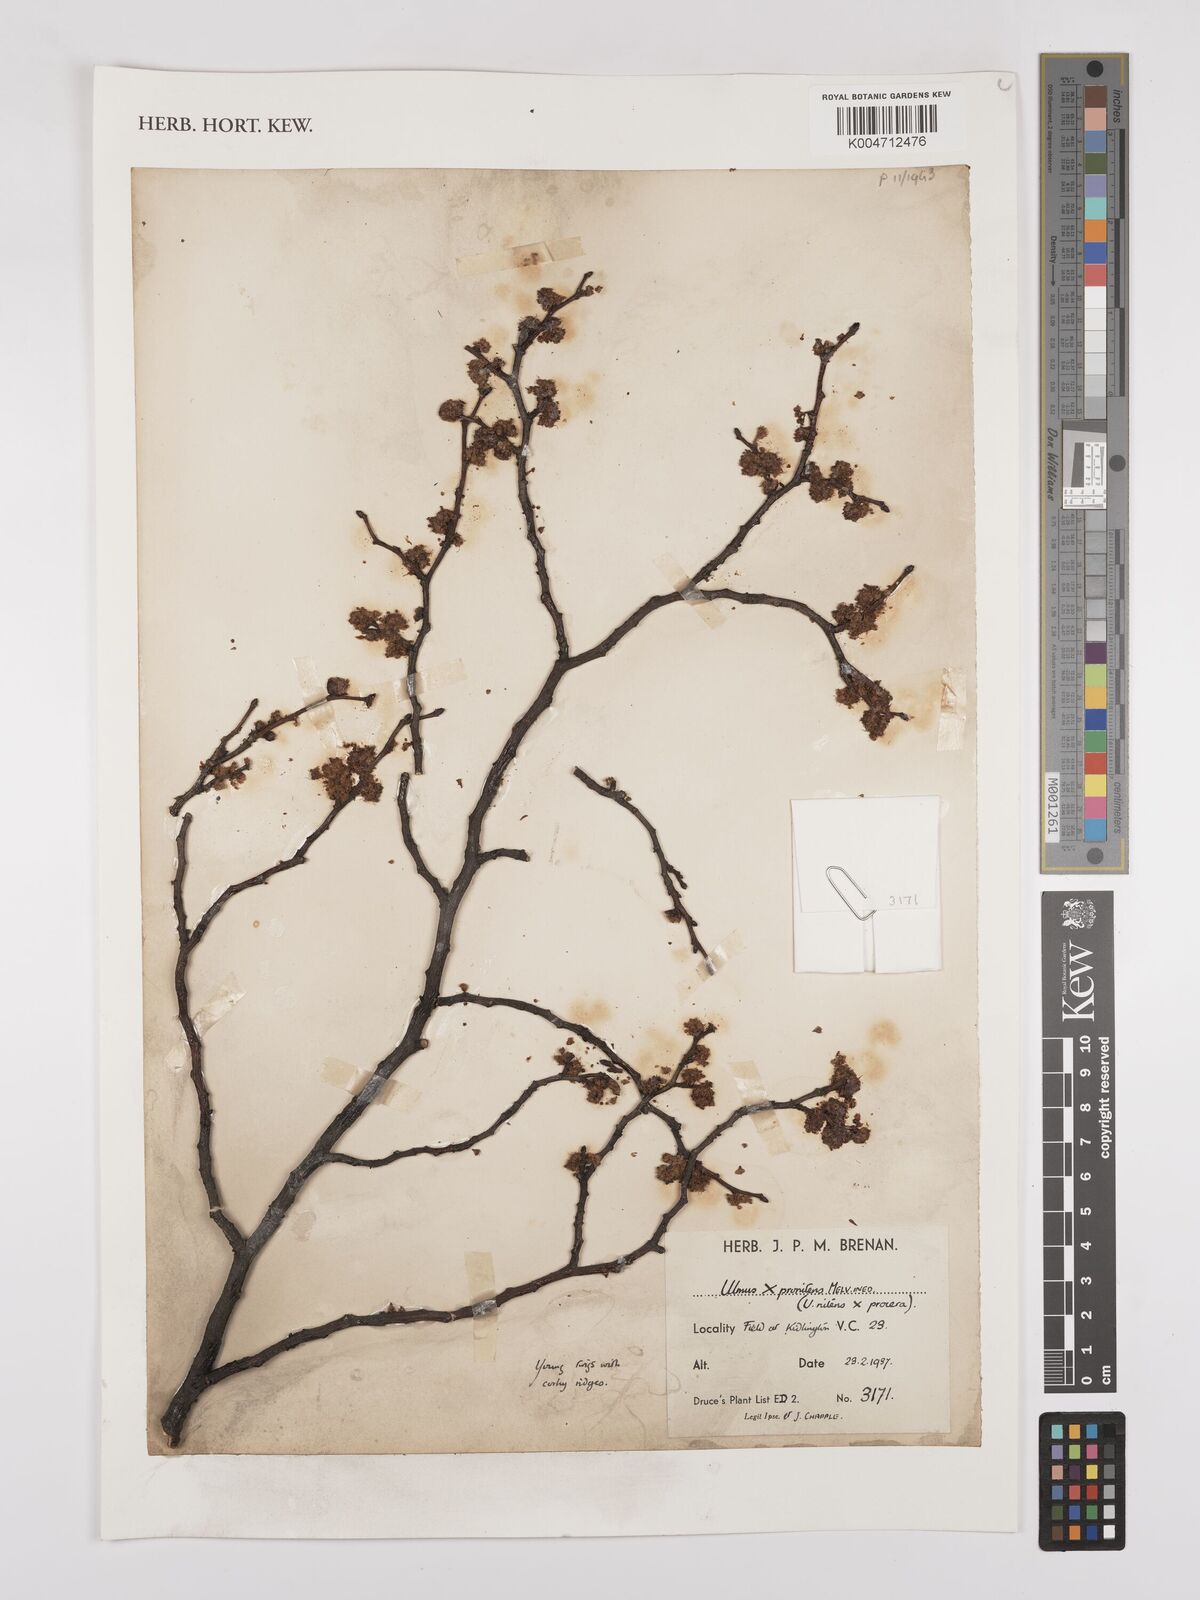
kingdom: Plantae
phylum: Tracheophyta
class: Magnoliopsida
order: Rosales
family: Ulmaceae
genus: Ulmus
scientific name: Ulmus minor
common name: Small-leaved elm
